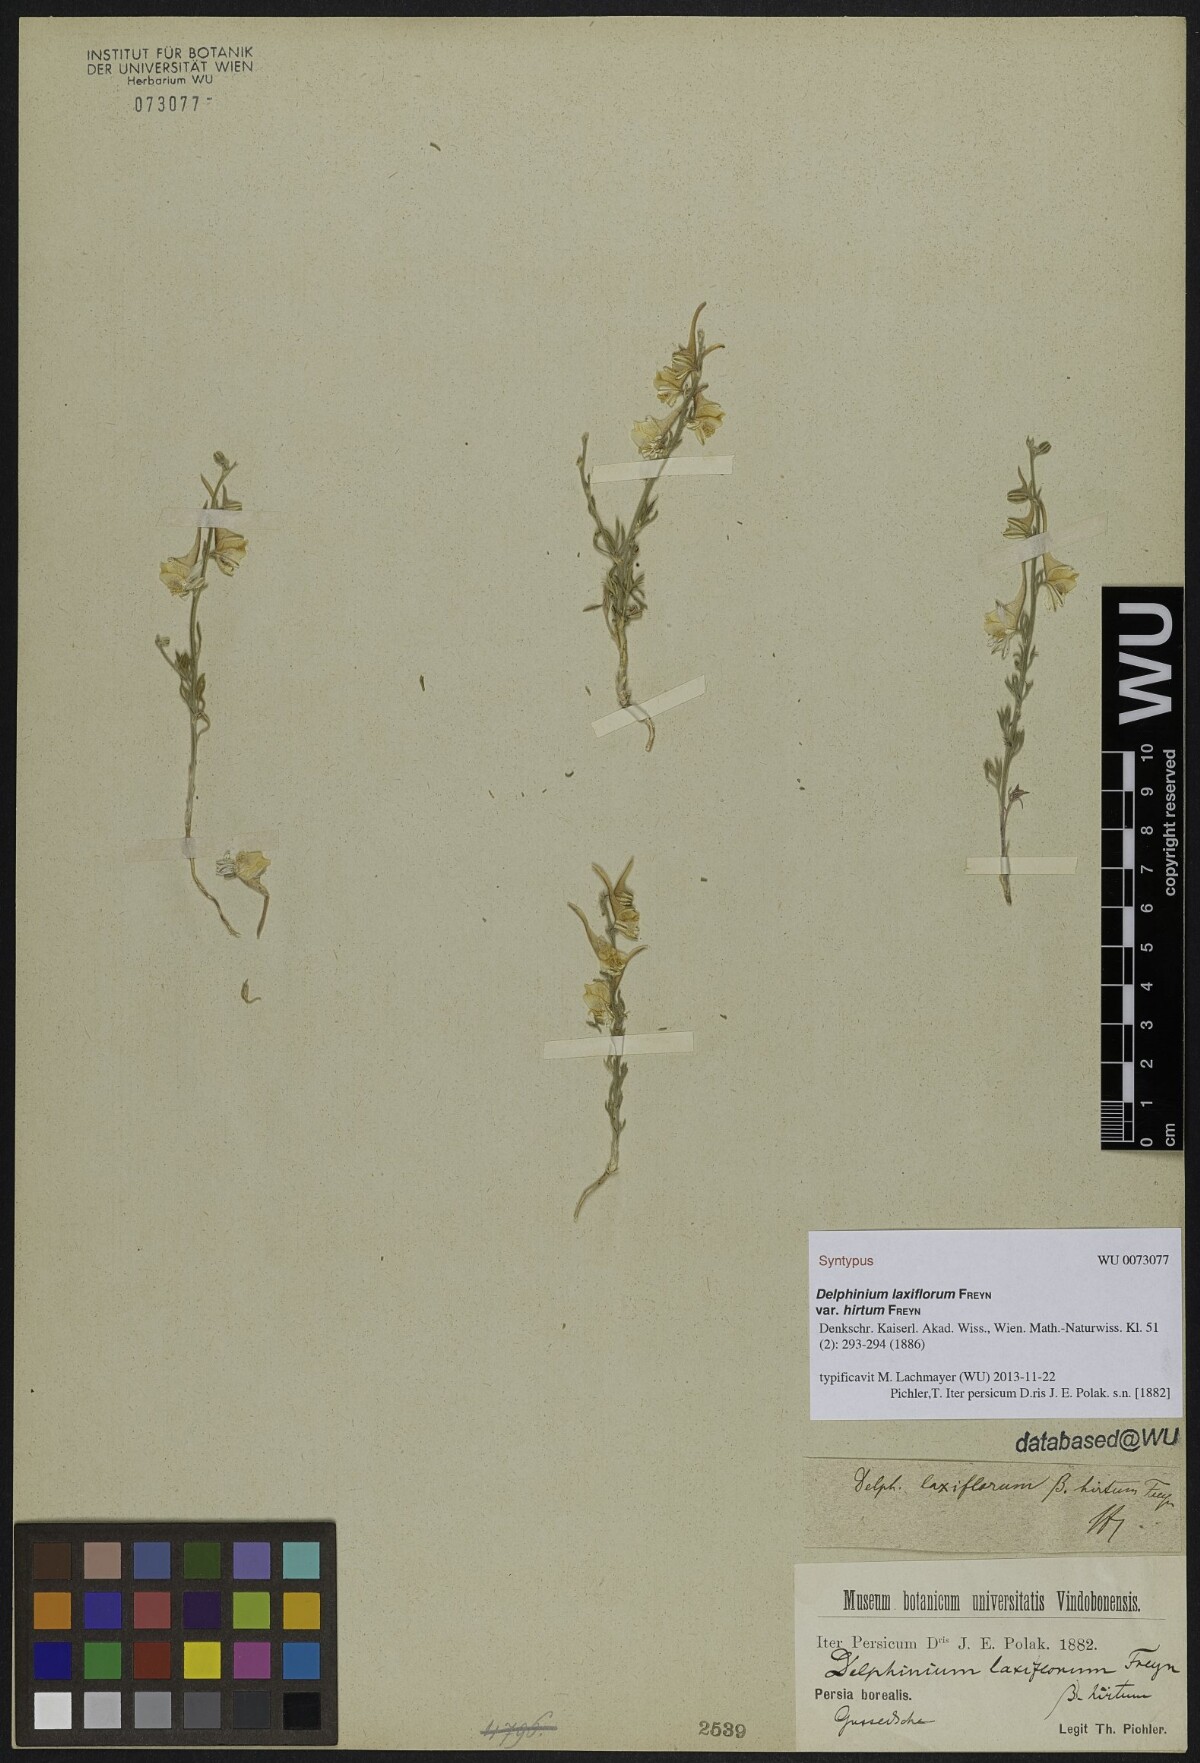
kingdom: Plantae
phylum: Tracheophyta
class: Magnoliopsida
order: Ranunculales
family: Ranunculaceae
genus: Delphinium
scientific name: Delphinium laxiflorum
